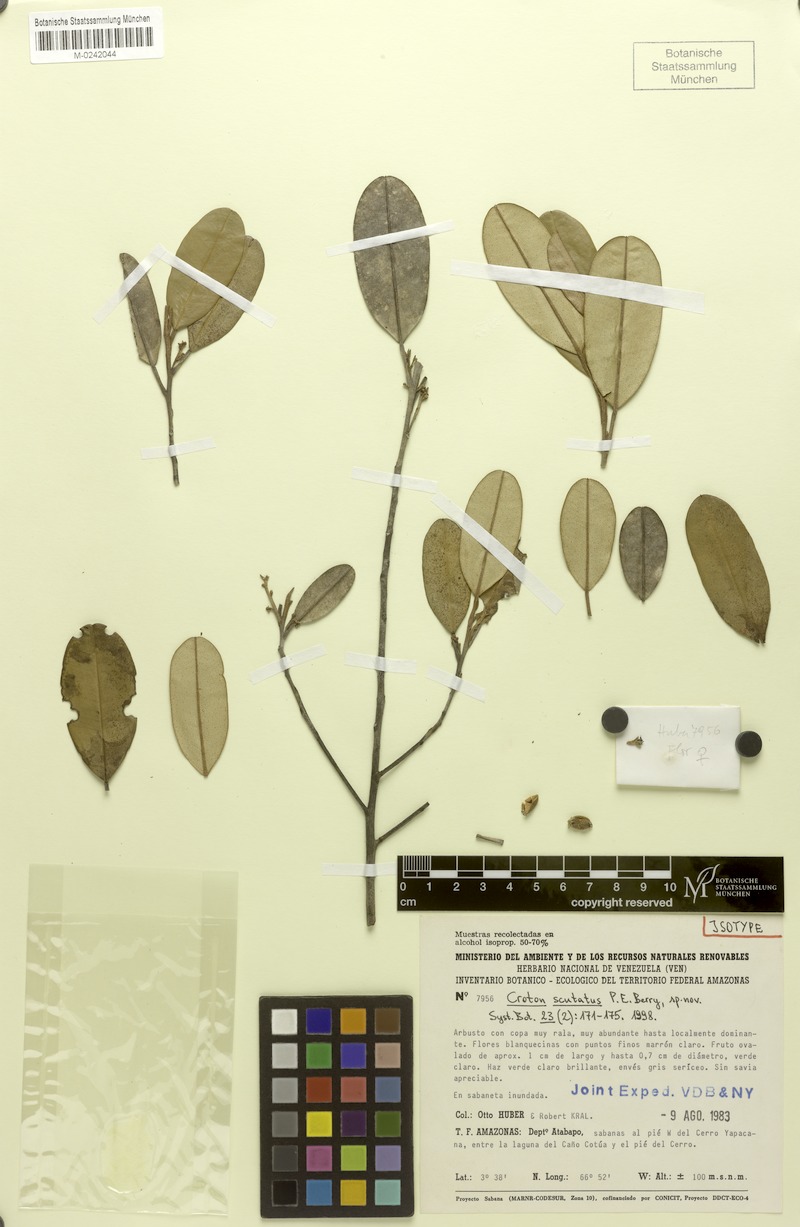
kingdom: Plantae
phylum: Tracheophyta
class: Magnoliopsida
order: Malpighiales
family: Euphorbiaceae
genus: Croton
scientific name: Croton scutatus
